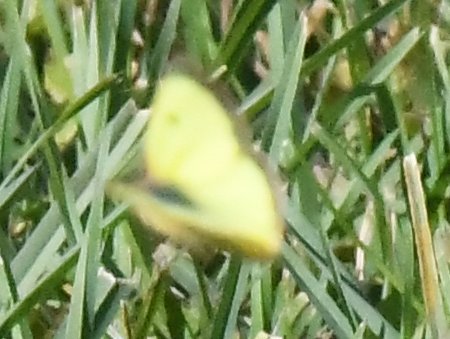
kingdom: Animalia
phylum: Arthropoda
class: Insecta
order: Lepidoptera
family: Pieridae
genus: Colias
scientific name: Colias philodice
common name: Clouded Sulphur
